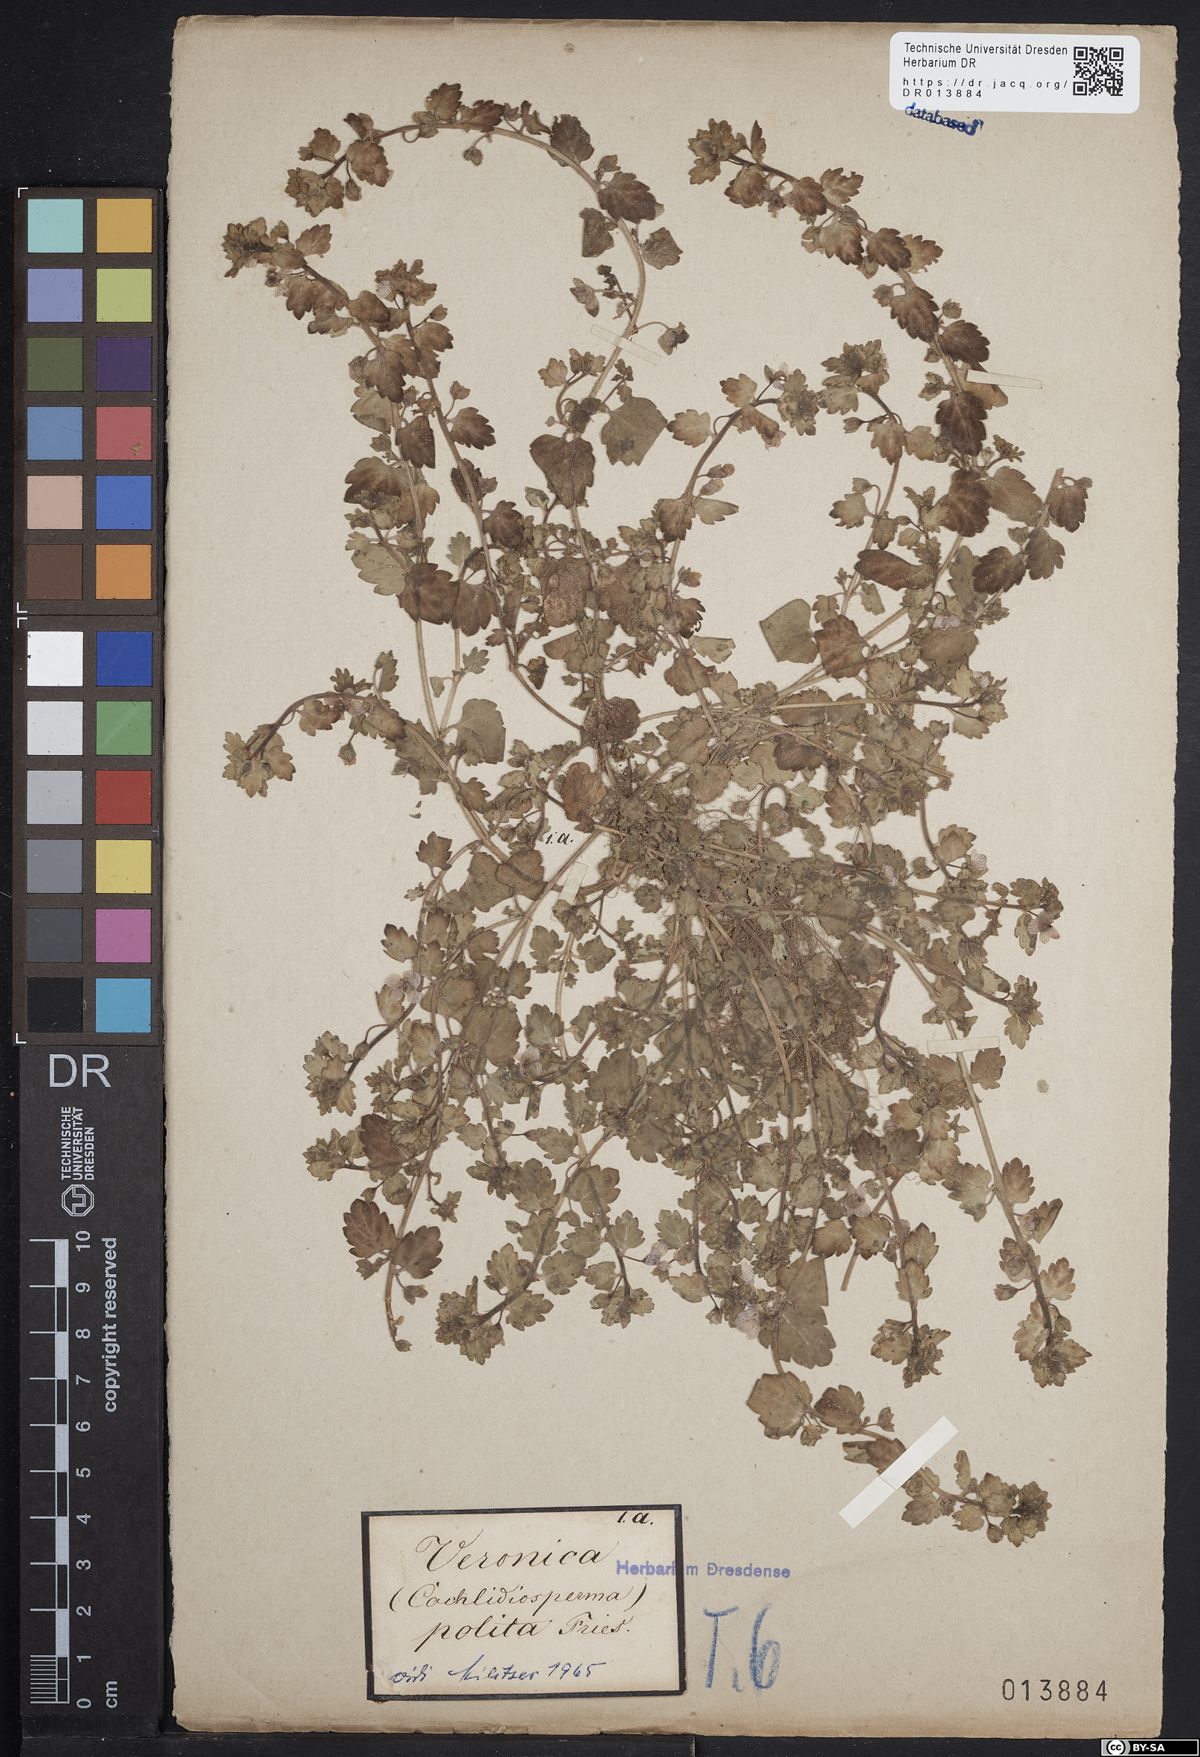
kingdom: Plantae
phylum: Tracheophyta
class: Magnoliopsida
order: Lamiales
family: Plantaginaceae
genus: Veronica
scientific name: Veronica polita
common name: Grey field-speedwell
